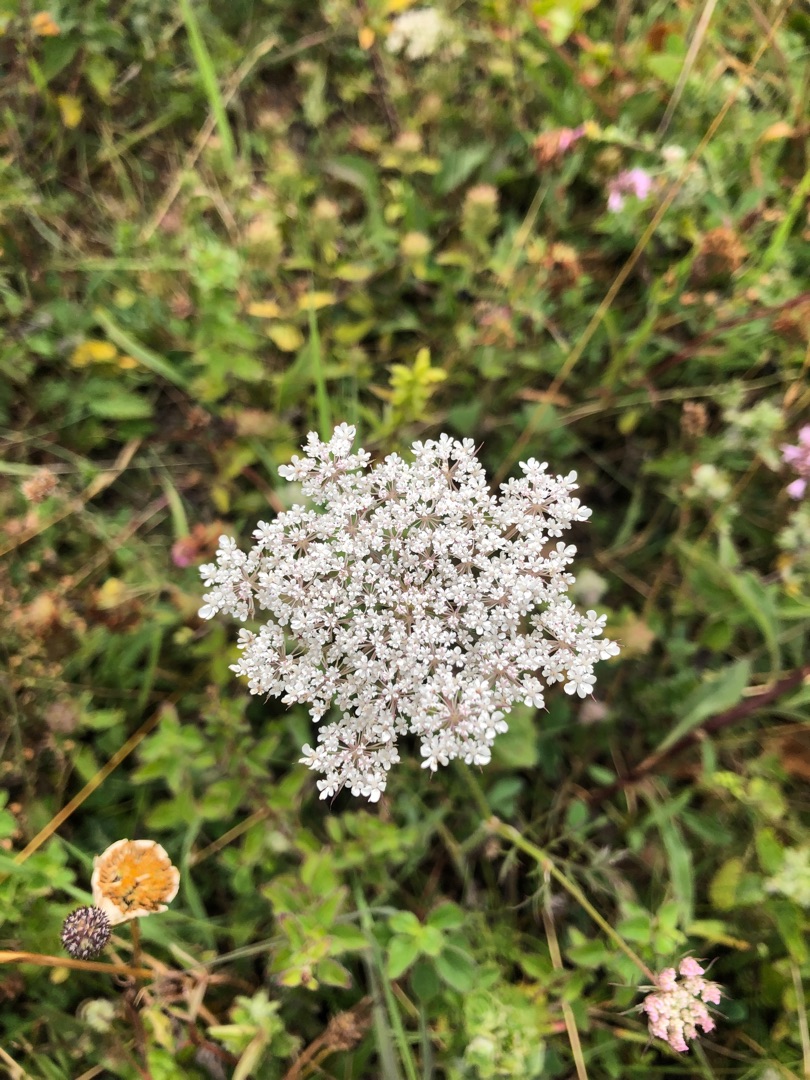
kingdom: Plantae
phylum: Tracheophyta
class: Magnoliopsida
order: Apiales
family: Apiaceae
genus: Daucus
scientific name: Daucus carota
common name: Vild gulerod
